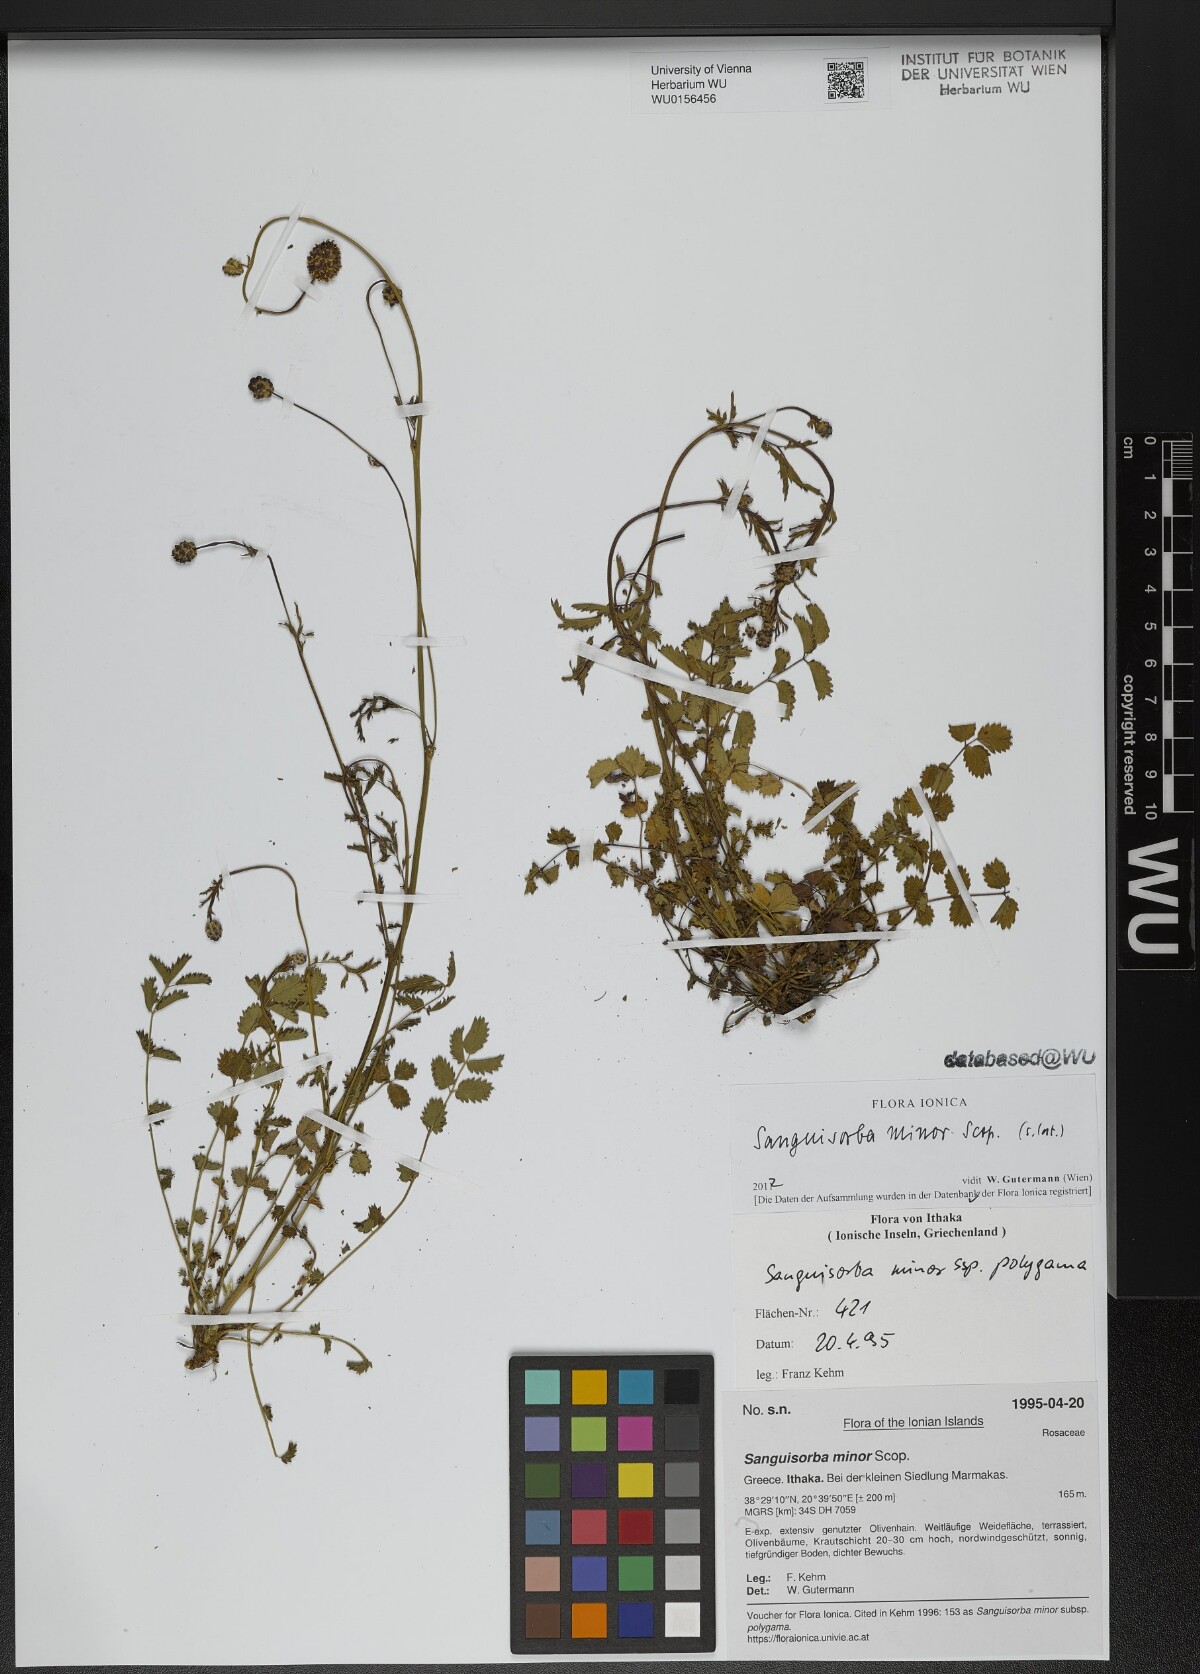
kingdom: Plantae
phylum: Tracheophyta
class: Magnoliopsida
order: Rosales
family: Rosaceae
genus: Poterium
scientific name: Poterium sanguisorba
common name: Salad burnet
